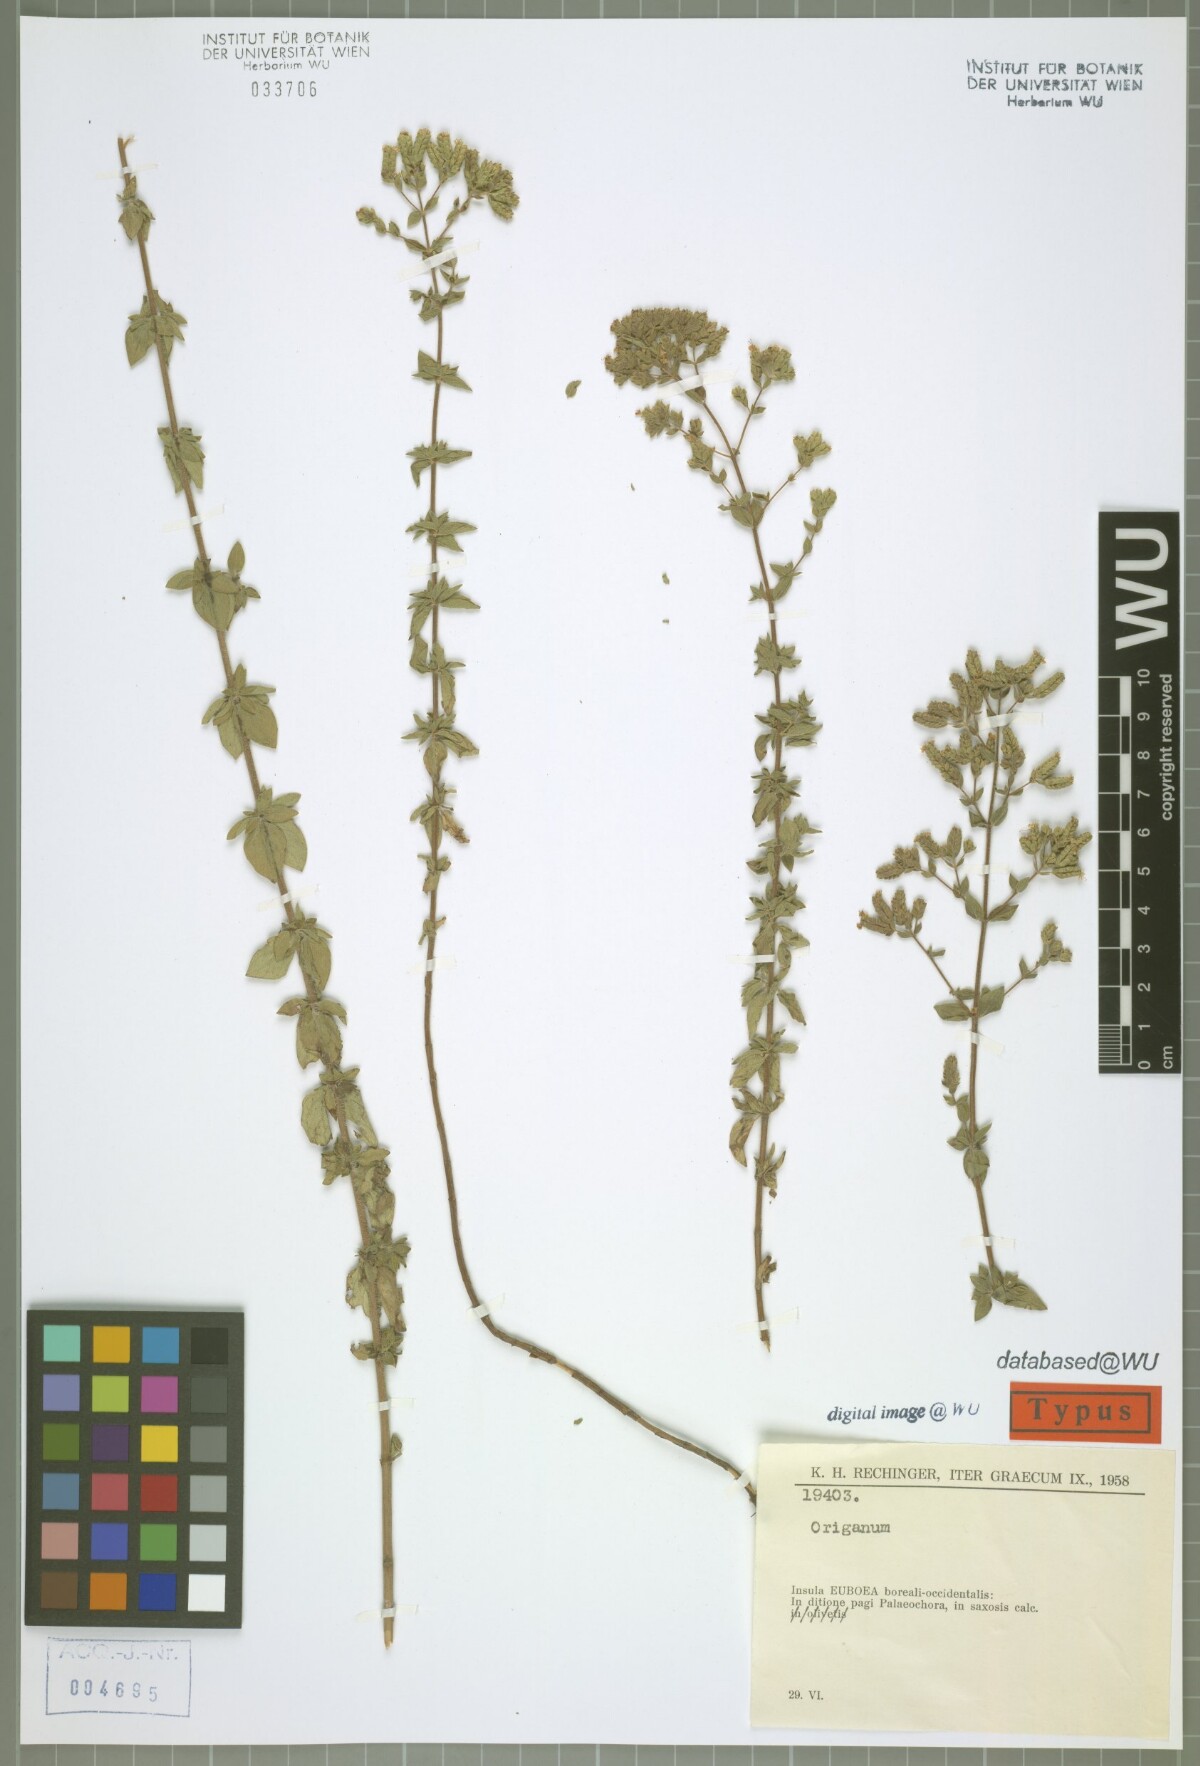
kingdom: Plantae
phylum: Tracheophyta
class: Magnoliopsida
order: Lamiales
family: Lamiaceae
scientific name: Lamiaceae
